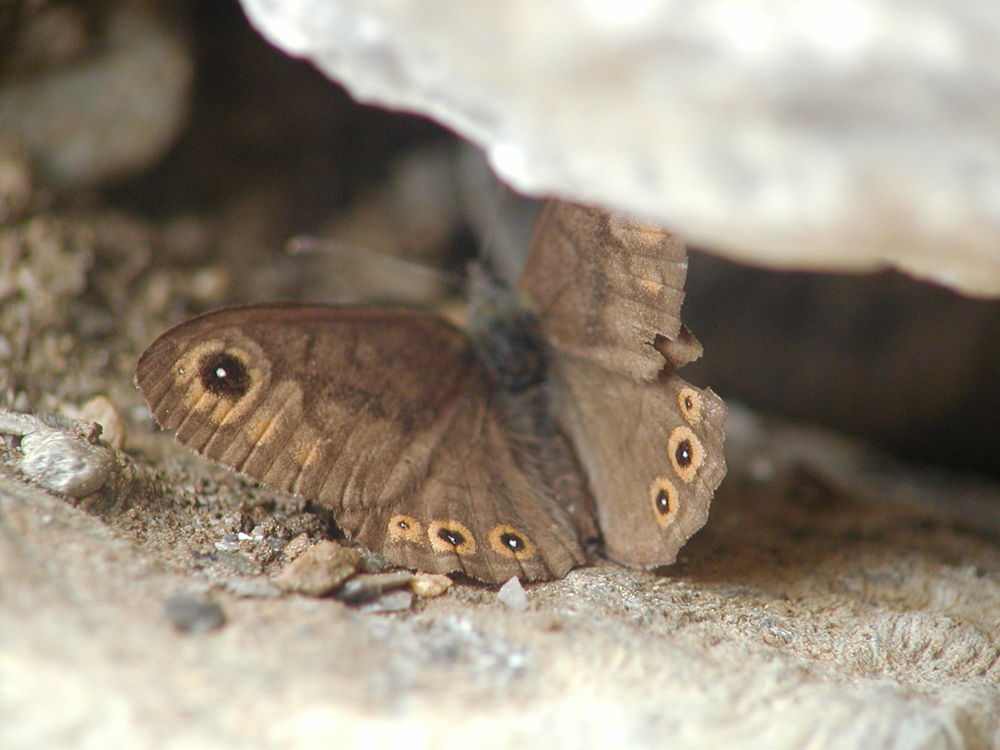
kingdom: Animalia
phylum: Arthropoda
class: Insecta
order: Lepidoptera
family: Nymphalidae
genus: Pararge
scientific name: Pararge petropolitana
